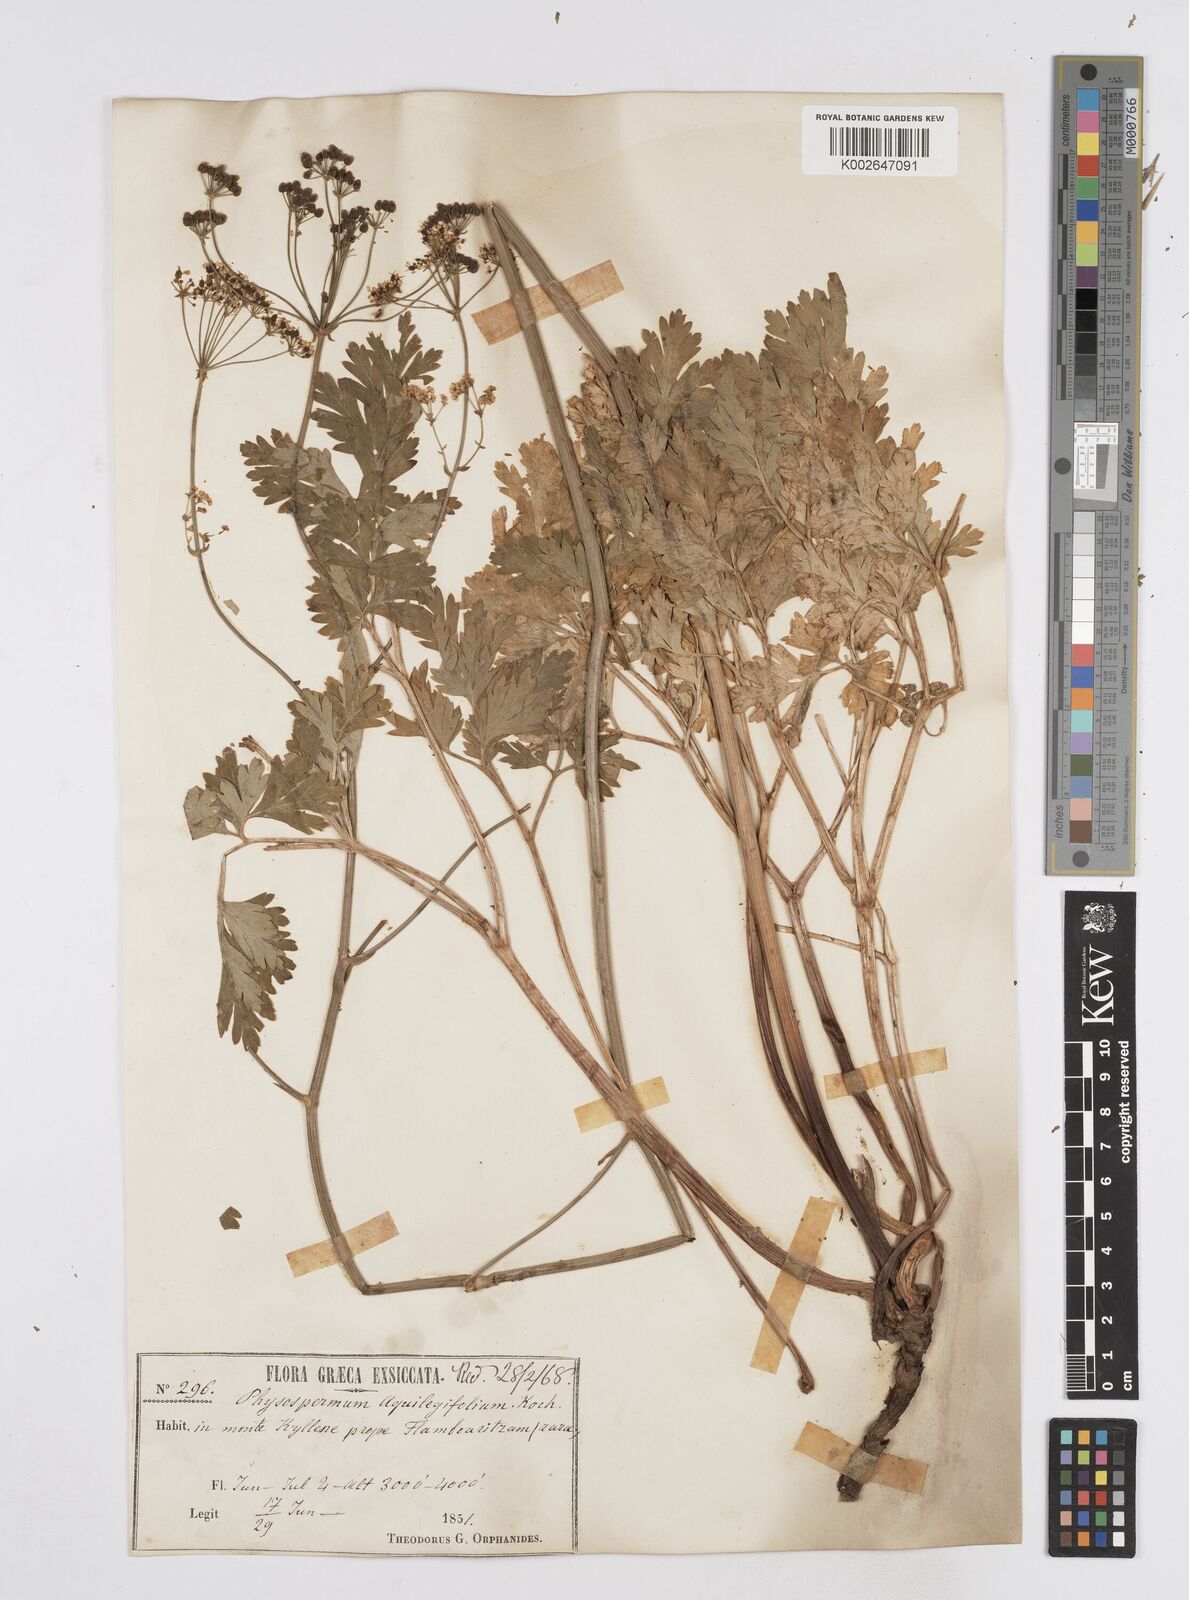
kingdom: Plantae
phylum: Tracheophyta
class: Magnoliopsida
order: Apiales
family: Apiaceae
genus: Physospermum
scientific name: Physospermum cornubiense
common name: Bladderseed
